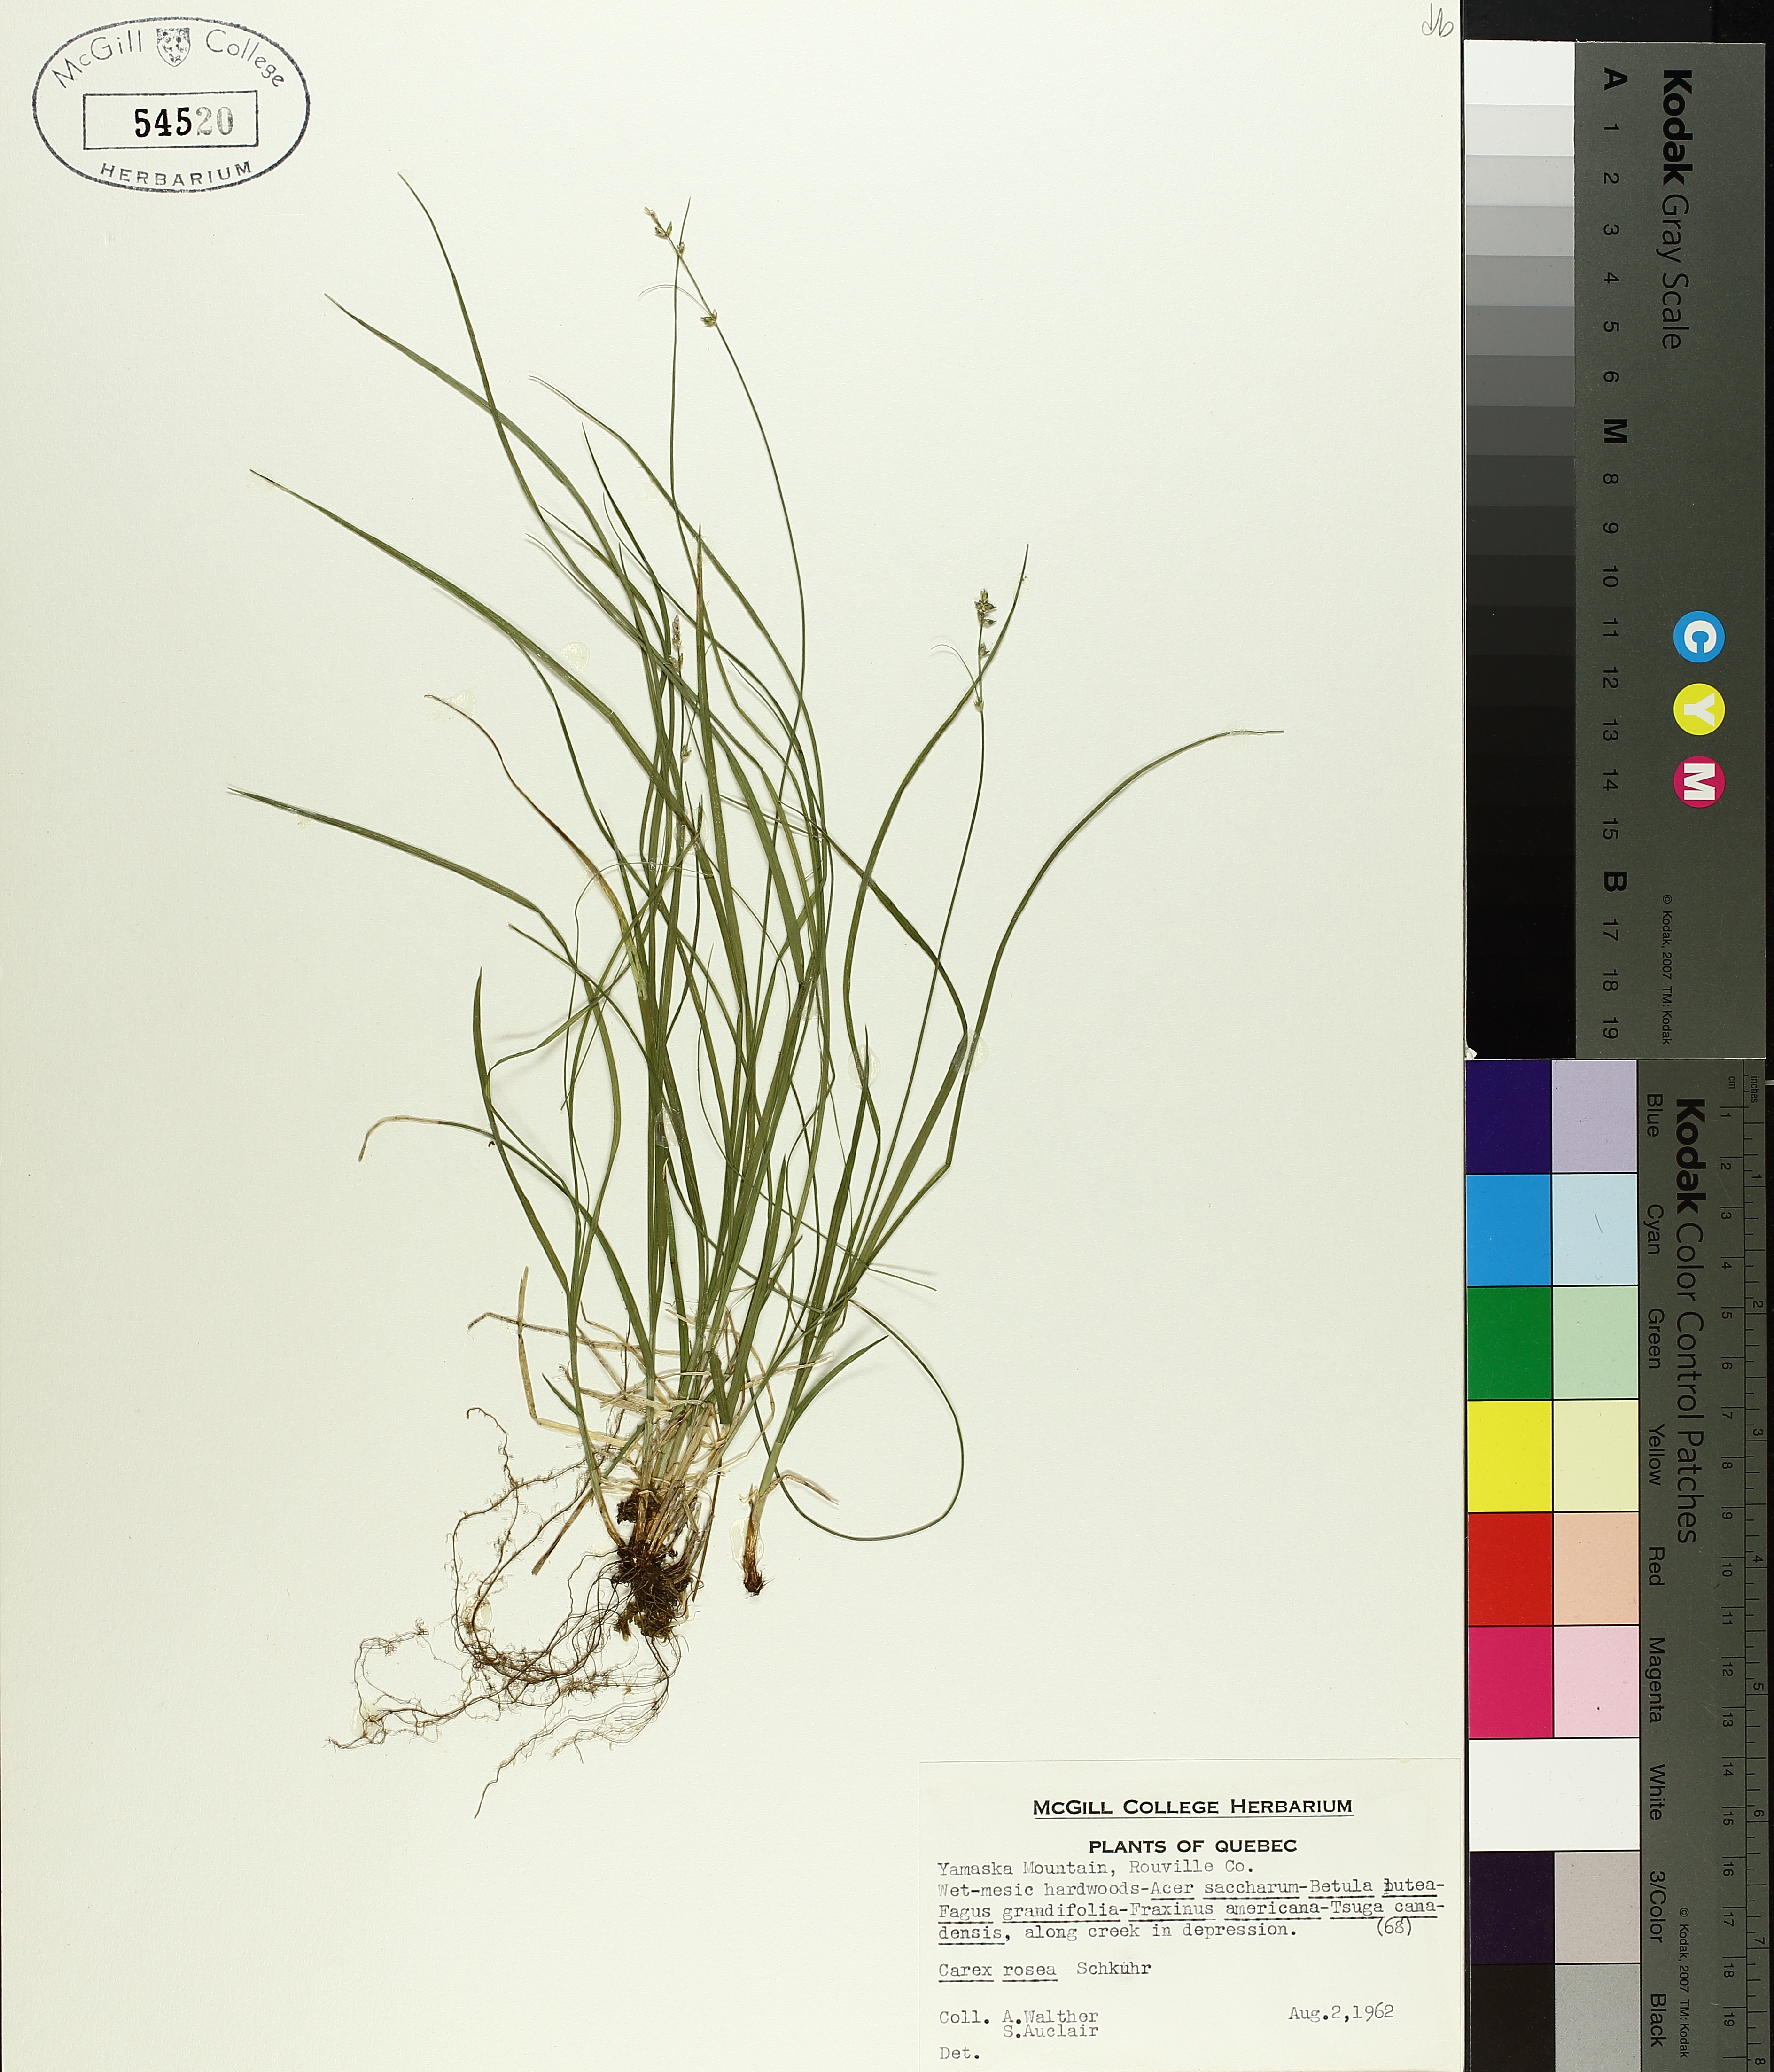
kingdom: Plantae
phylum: Tracheophyta
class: Liliopsida
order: Poales
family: Cyperaceae
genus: Carex
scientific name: Carex rosea
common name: Curly-styled wood sedge
